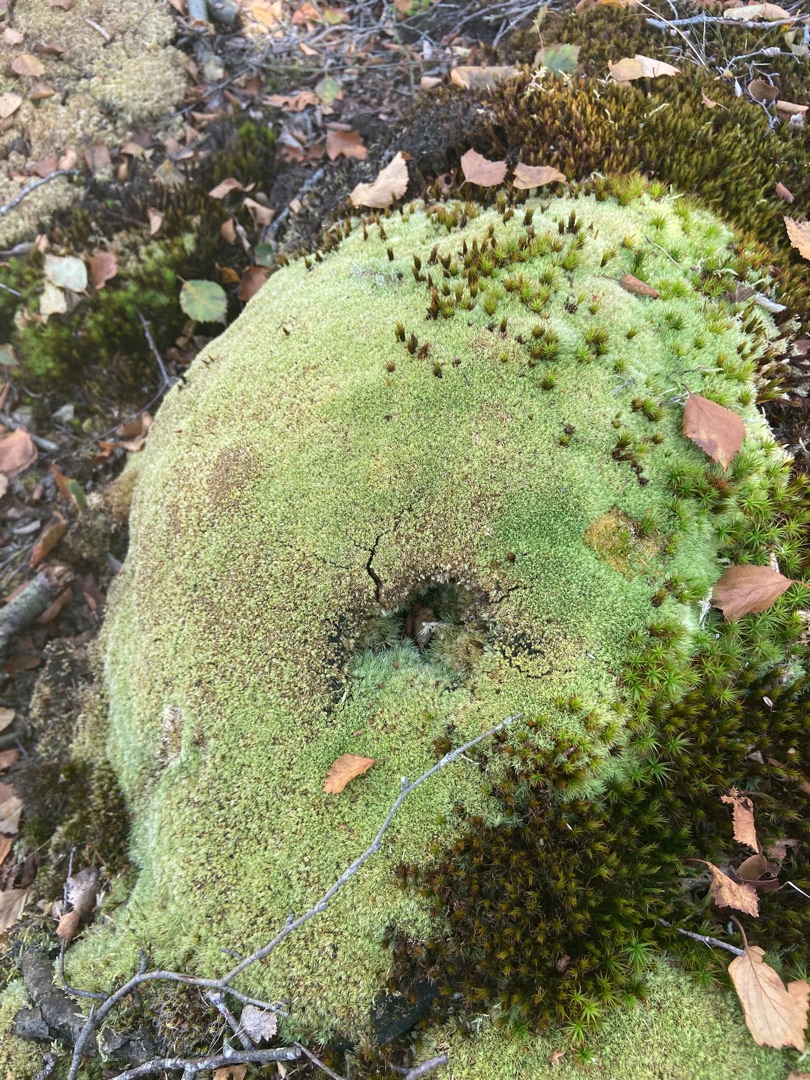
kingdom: Plantae
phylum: Bryophyta
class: Bryopsida
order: Dicranales
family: Leucobryaceae
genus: Leucobryum
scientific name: Leucobryum glaucum
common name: Almindelig hvidmos
